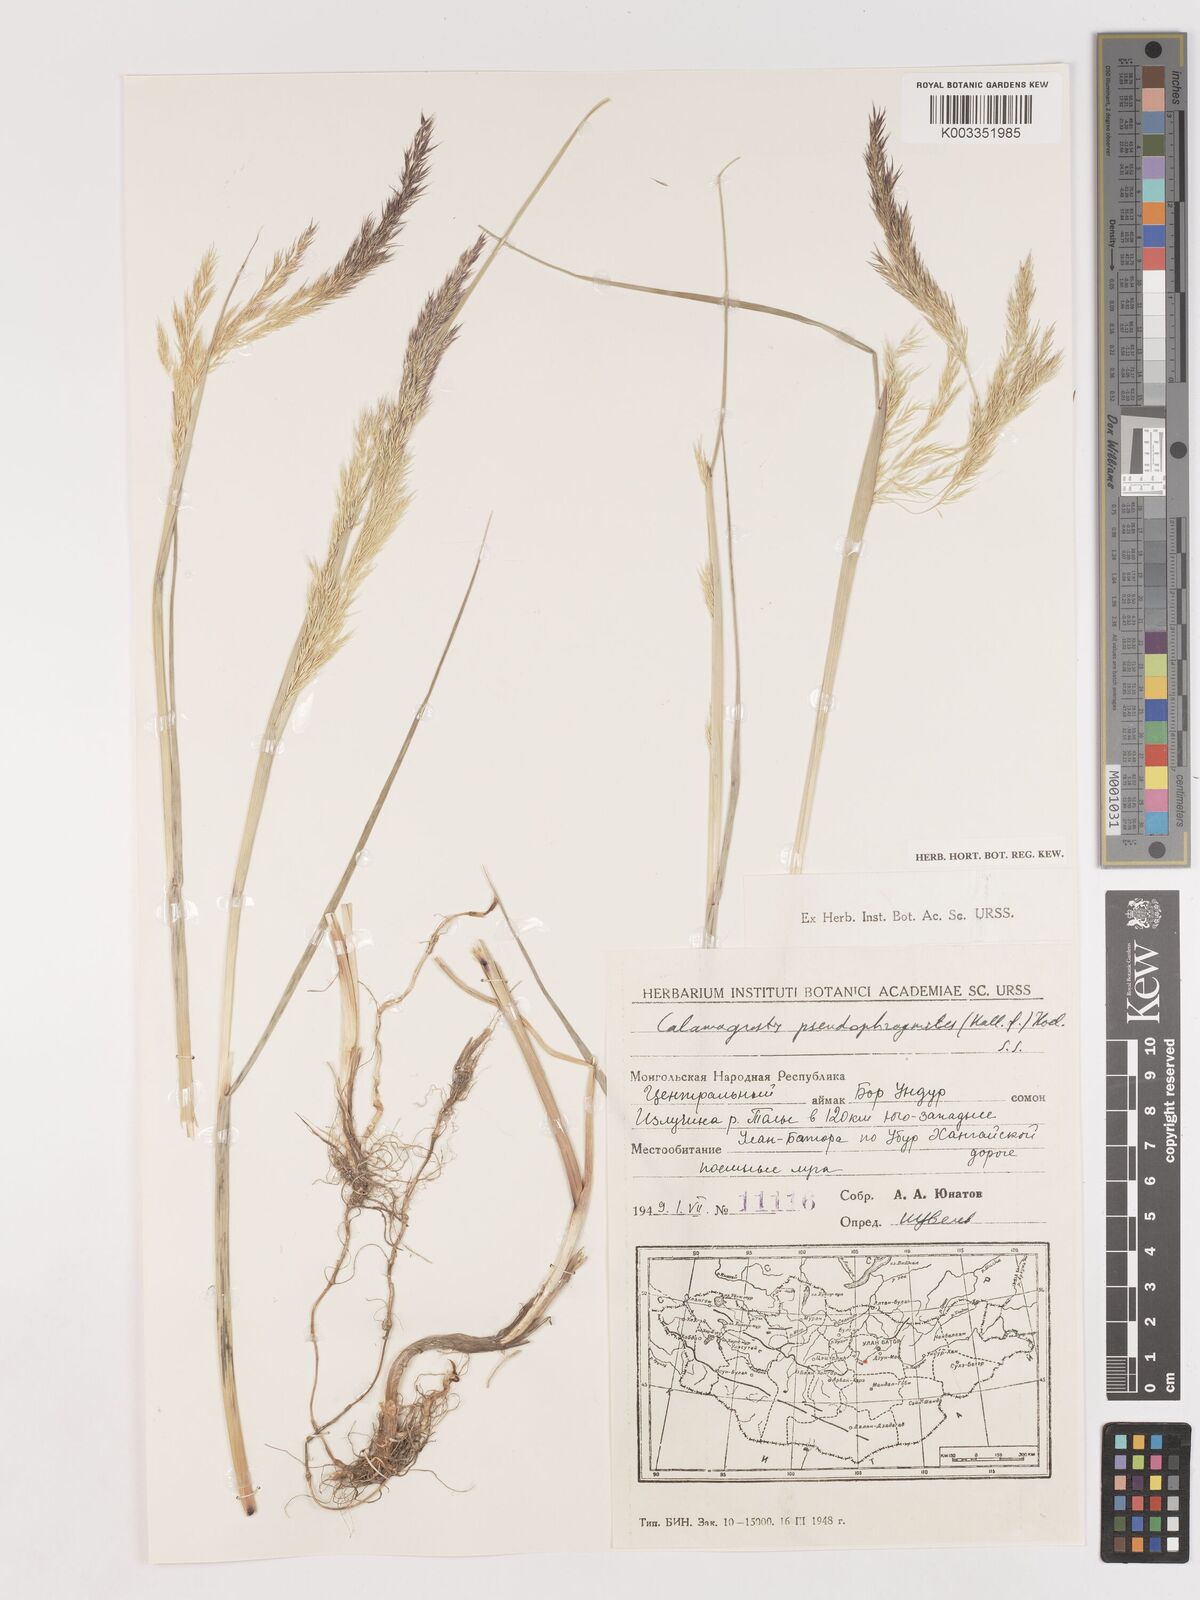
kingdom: Plantae
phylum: Tracheophyta
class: Liliopsida
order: Poales
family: Poaceae
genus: Calamagrostis
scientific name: Calamagrostis pseudophragmites
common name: Coastal small-reed
